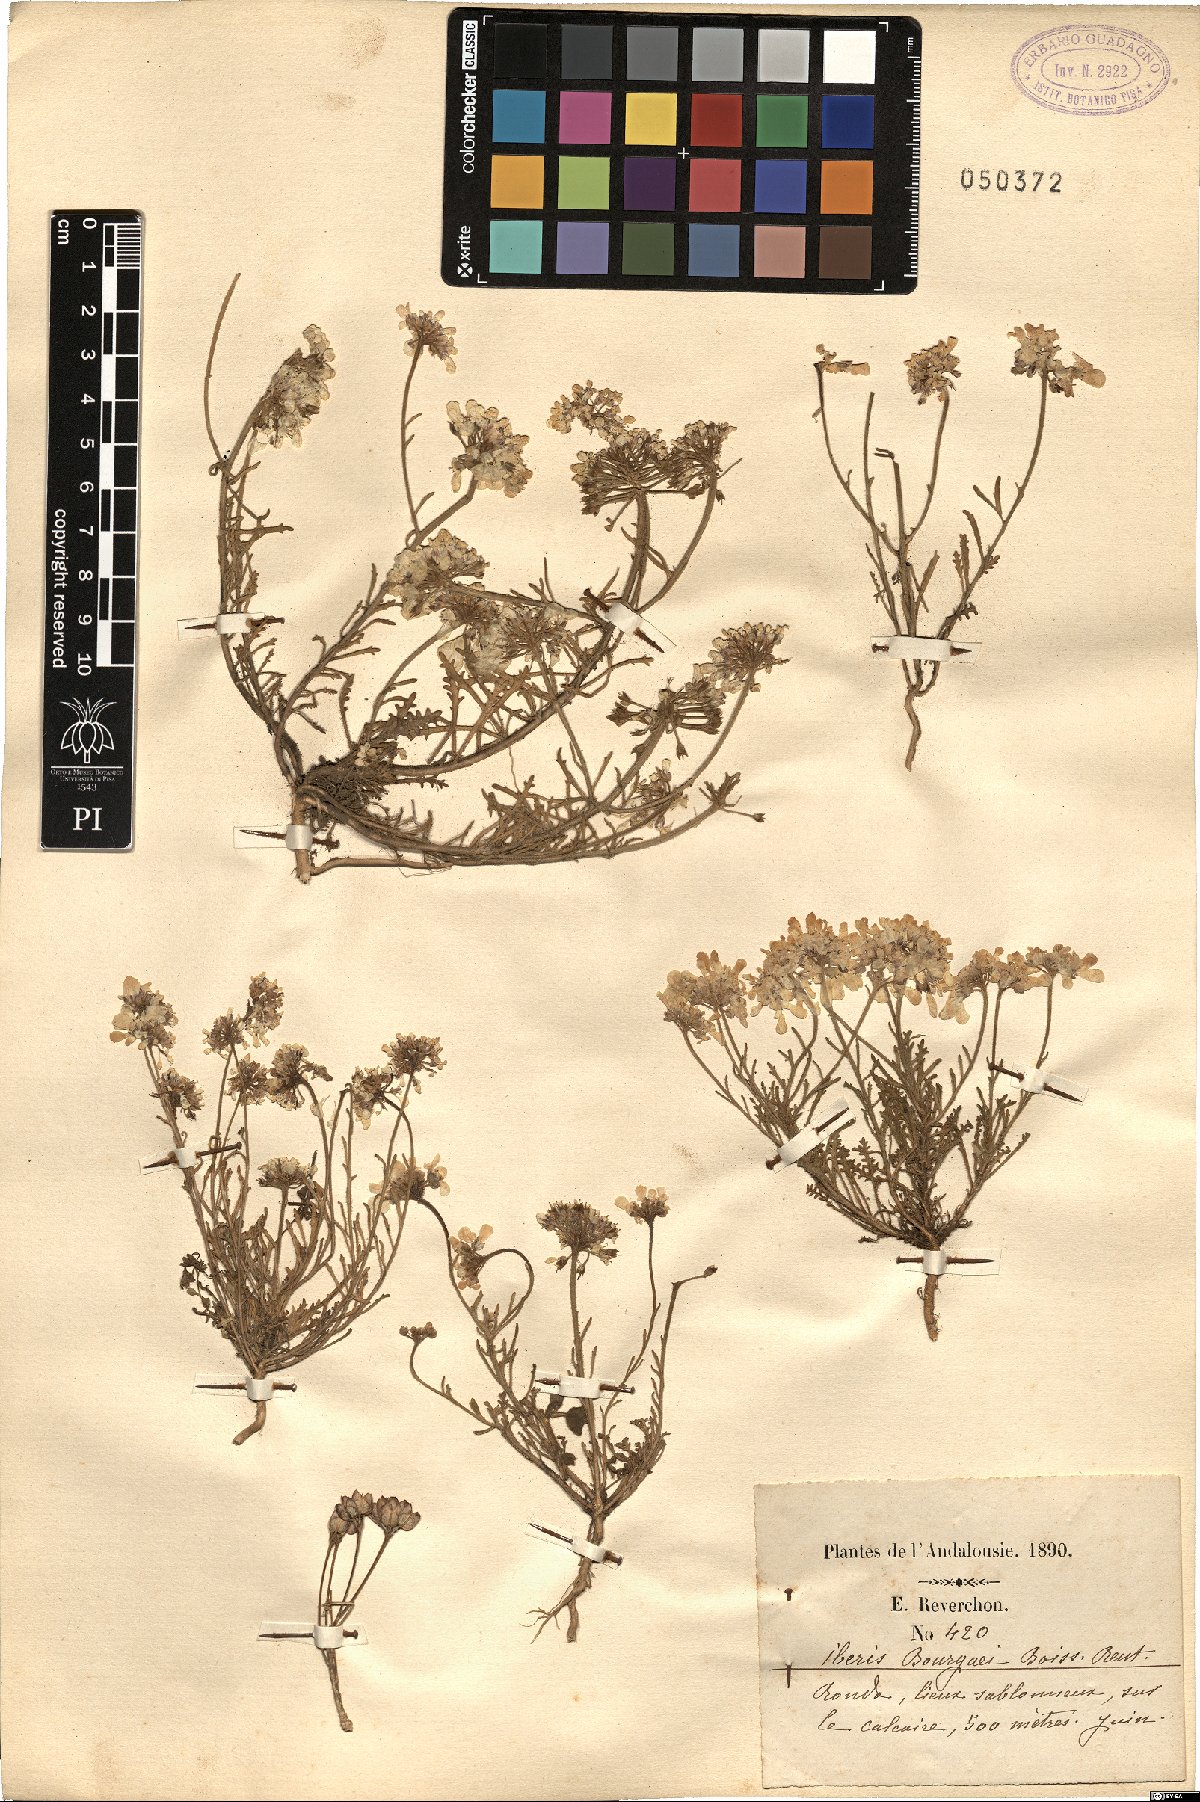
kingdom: Plantae
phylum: Tracheophyta
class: Magnoliopsida
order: Brassicales
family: Brassicaceae
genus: Iberis
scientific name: Iberis pectinata
